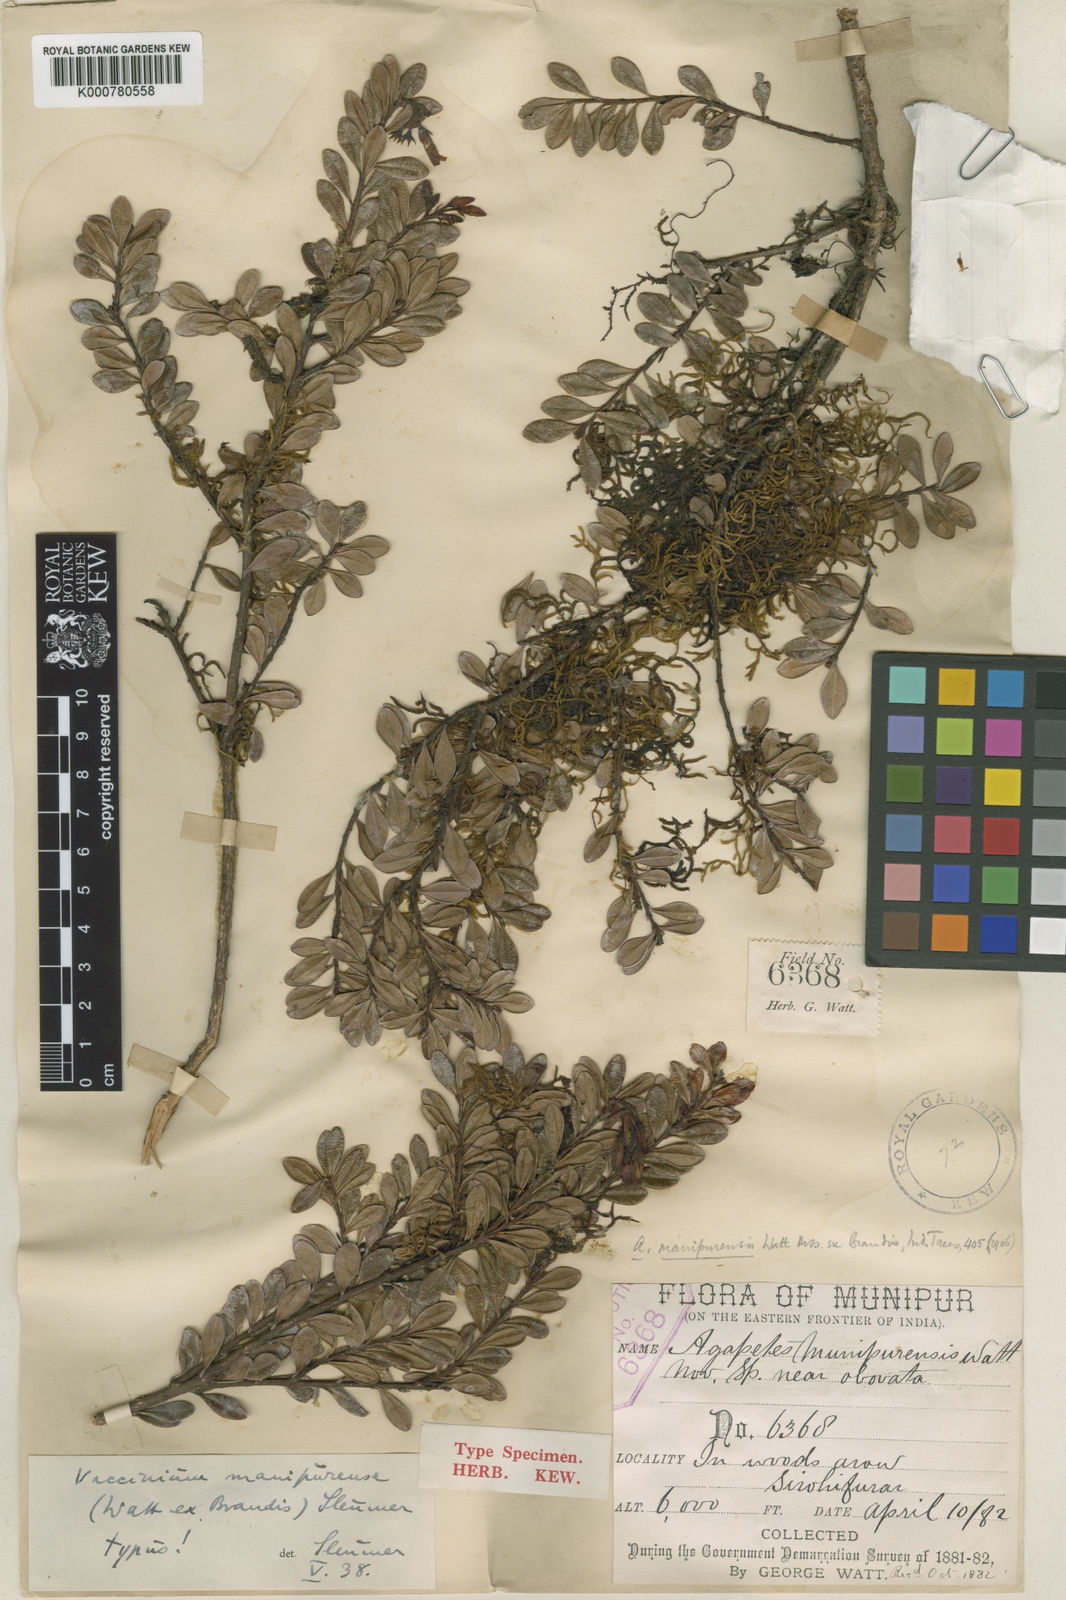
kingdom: Plantae
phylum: Tracheophyta
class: Magnoliopsida
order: Ericales
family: Ericaceae
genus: Vaccinium
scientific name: Vaccinium manipurense
